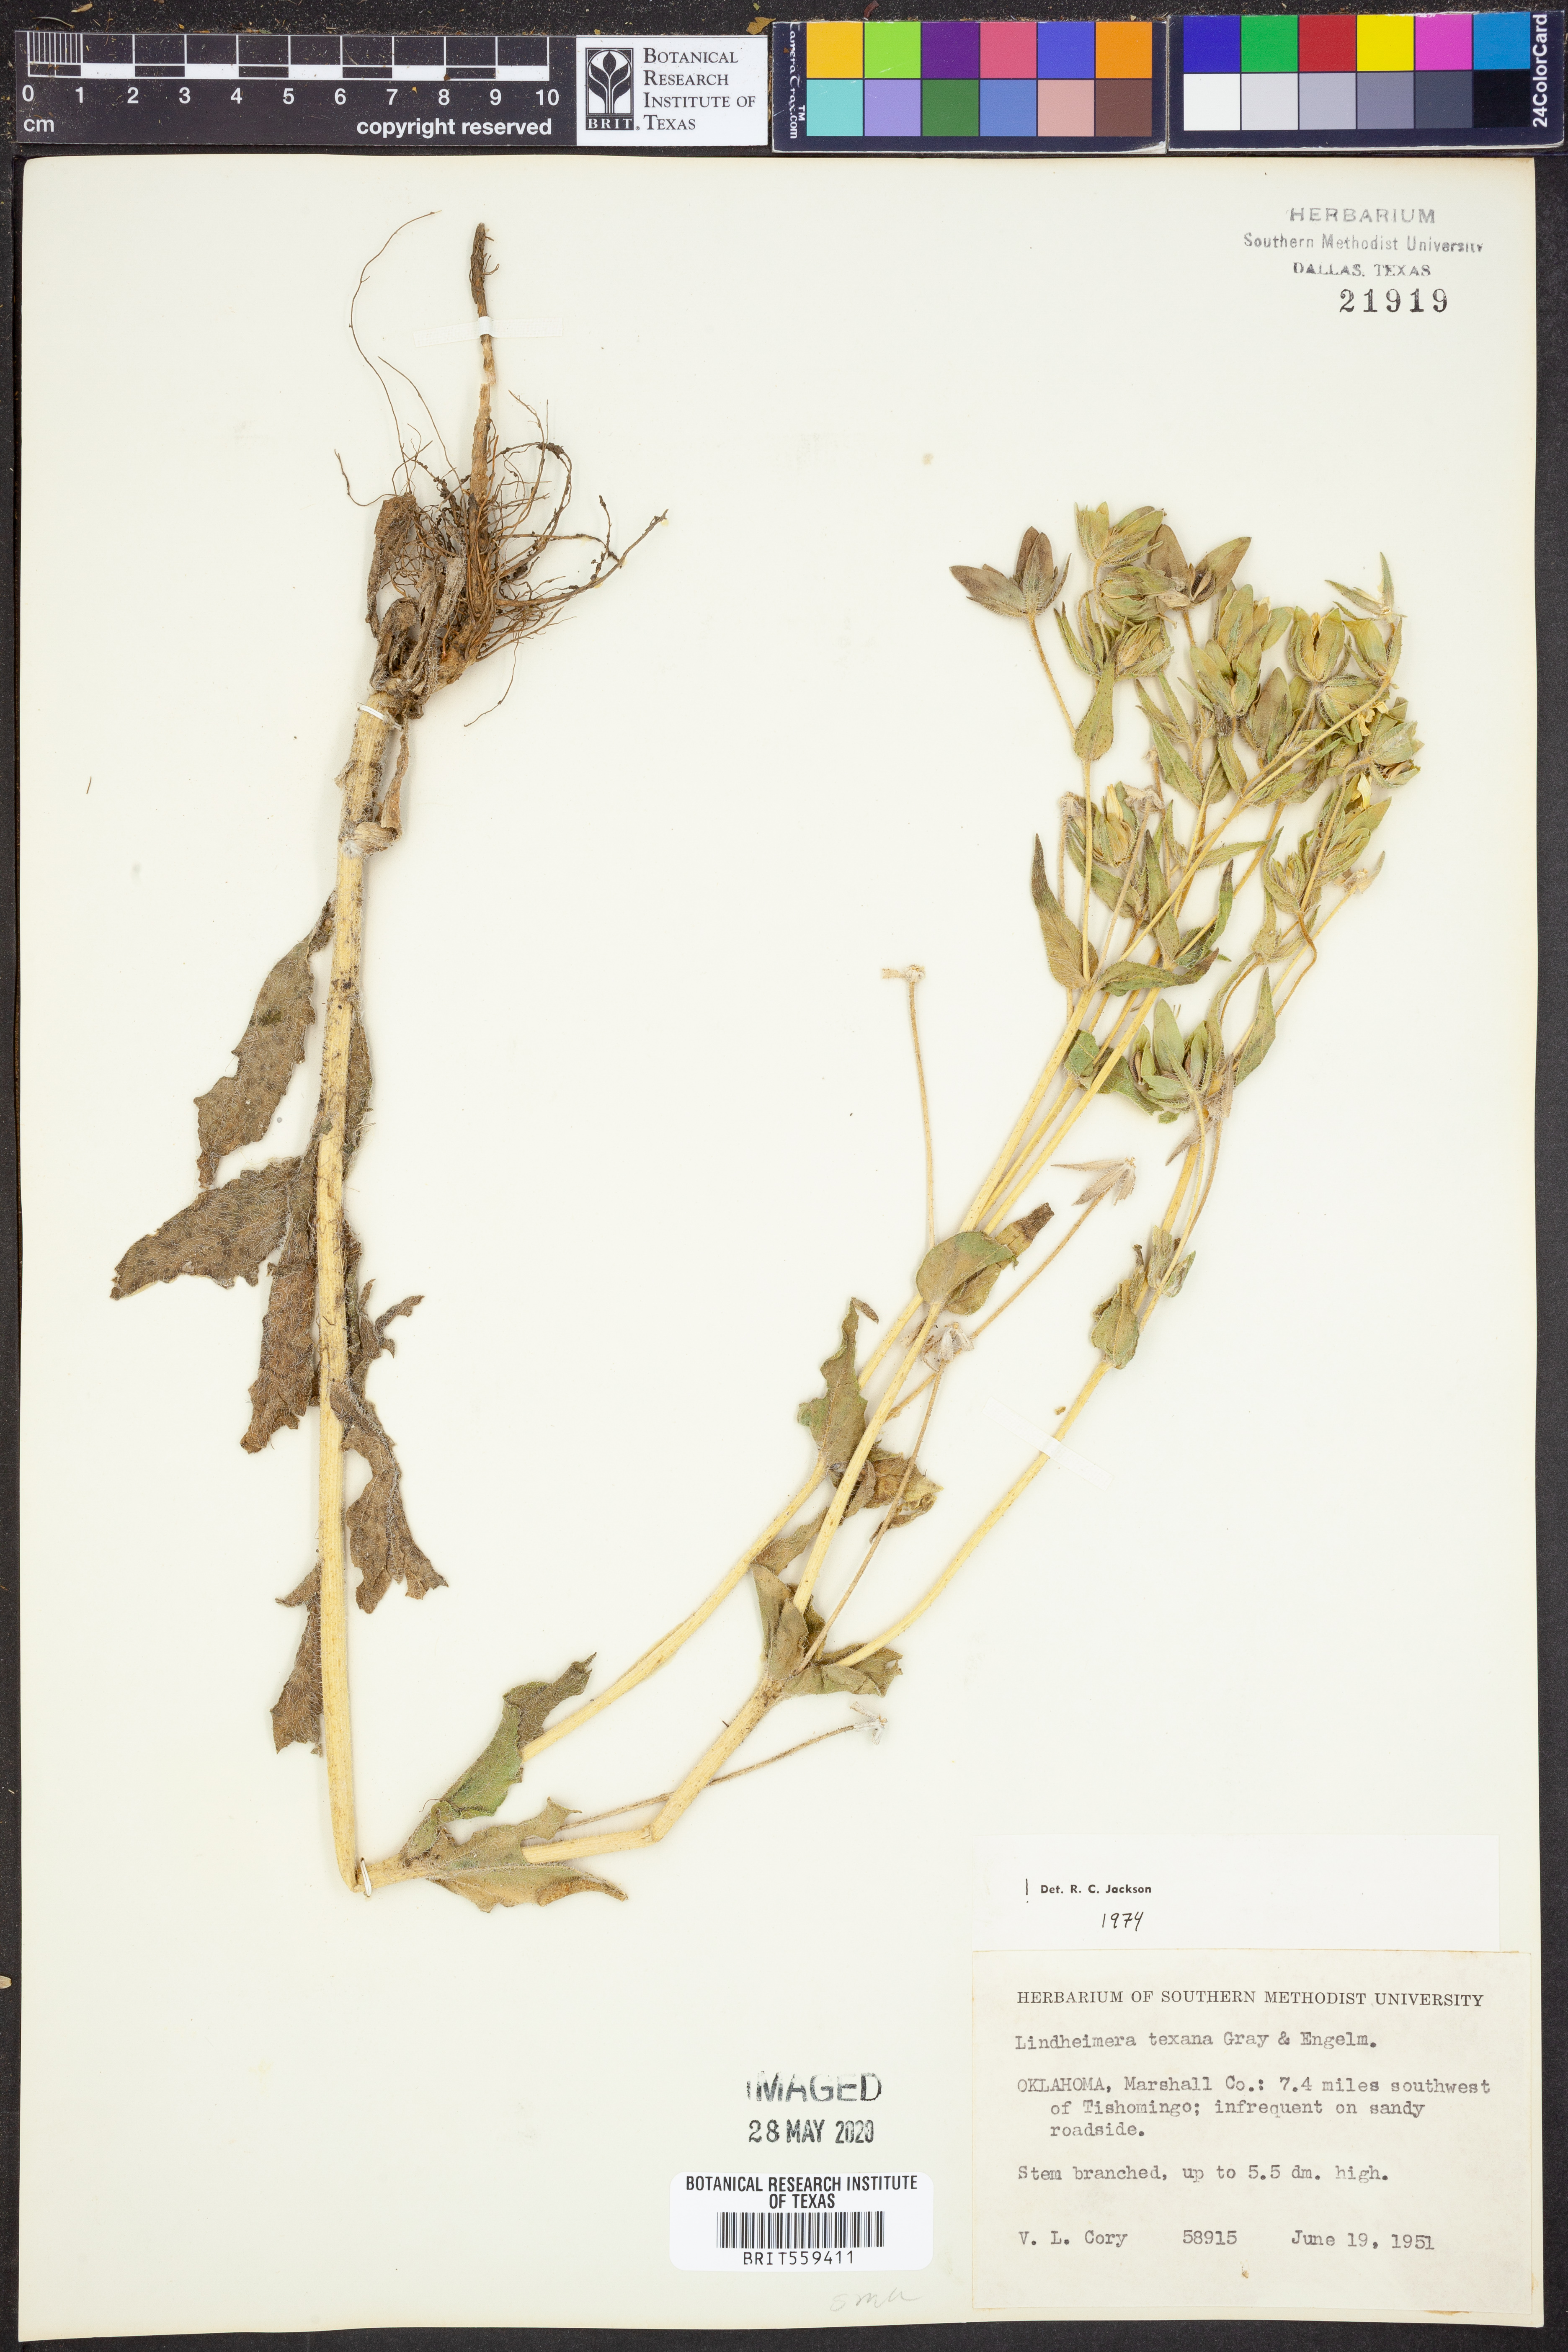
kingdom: Plantae
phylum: Tracheophyta
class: Magnoliopsida
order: Asterales
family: Asteraceae
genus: Lindheimera
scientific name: Lindheimera texana
